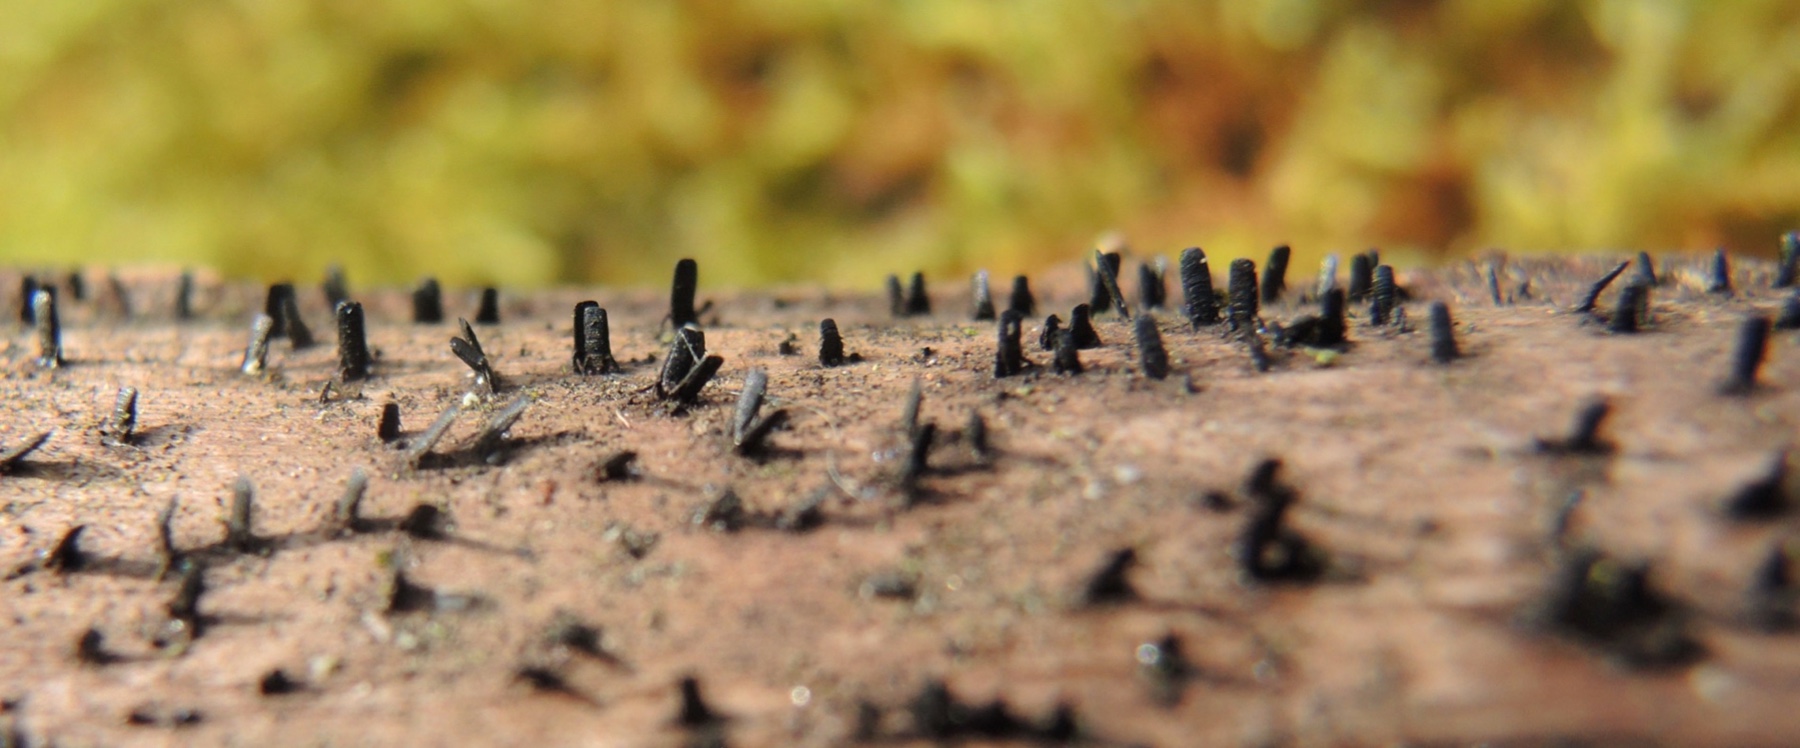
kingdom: Fungi
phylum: Ascomycota
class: Eurotiomycetes
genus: Glyphium
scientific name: Glyphium elatum
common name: kuløkse
